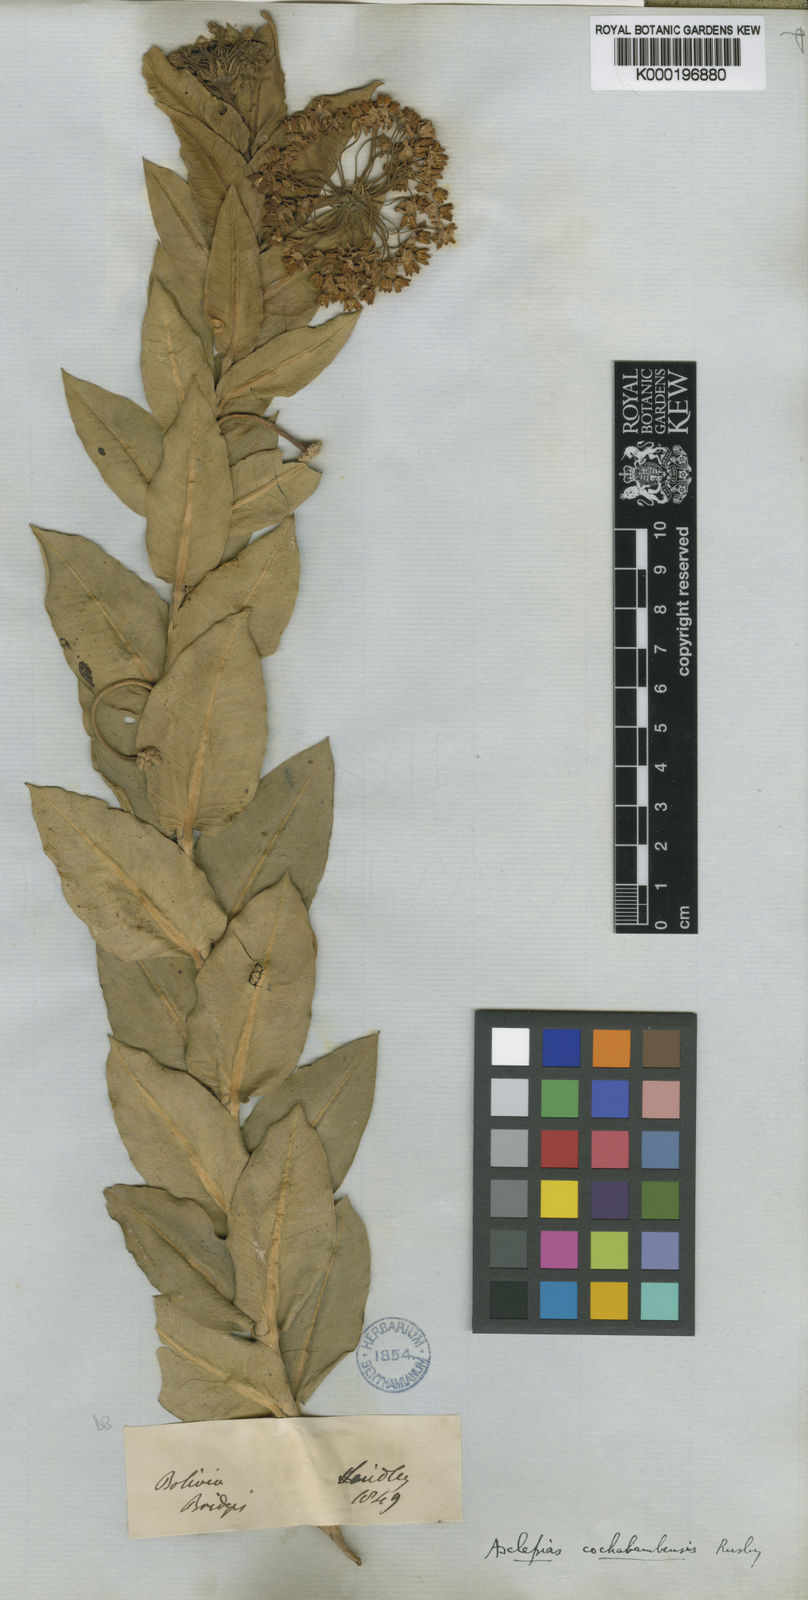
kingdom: Plantae
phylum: Tracheophyta
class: Magnoliopsida
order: Gentianales
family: Apocynaceae
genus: Asclepias
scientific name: Asclepias barjoniifolia
